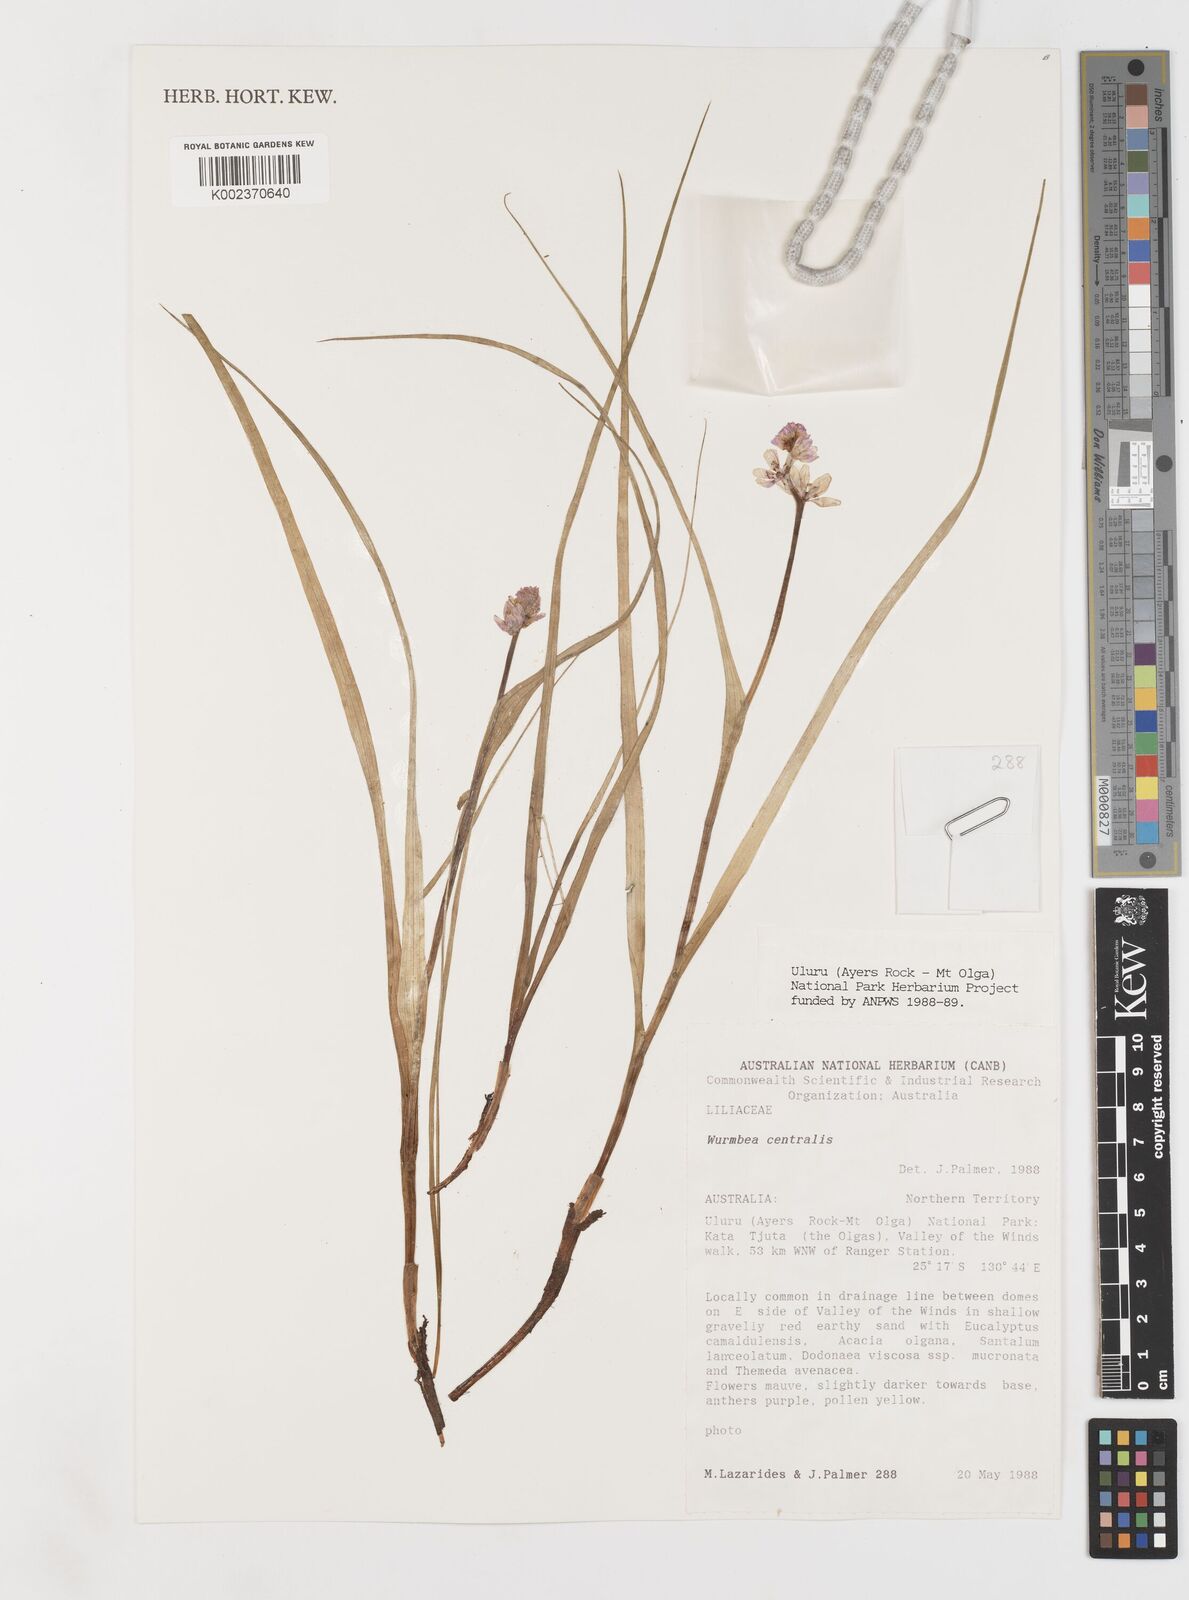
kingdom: Plantae
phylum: Tracheophyta
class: Liliopsida
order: Liliales
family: Colchicaceae
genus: Wurmbea
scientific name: Wurmbea centralis
